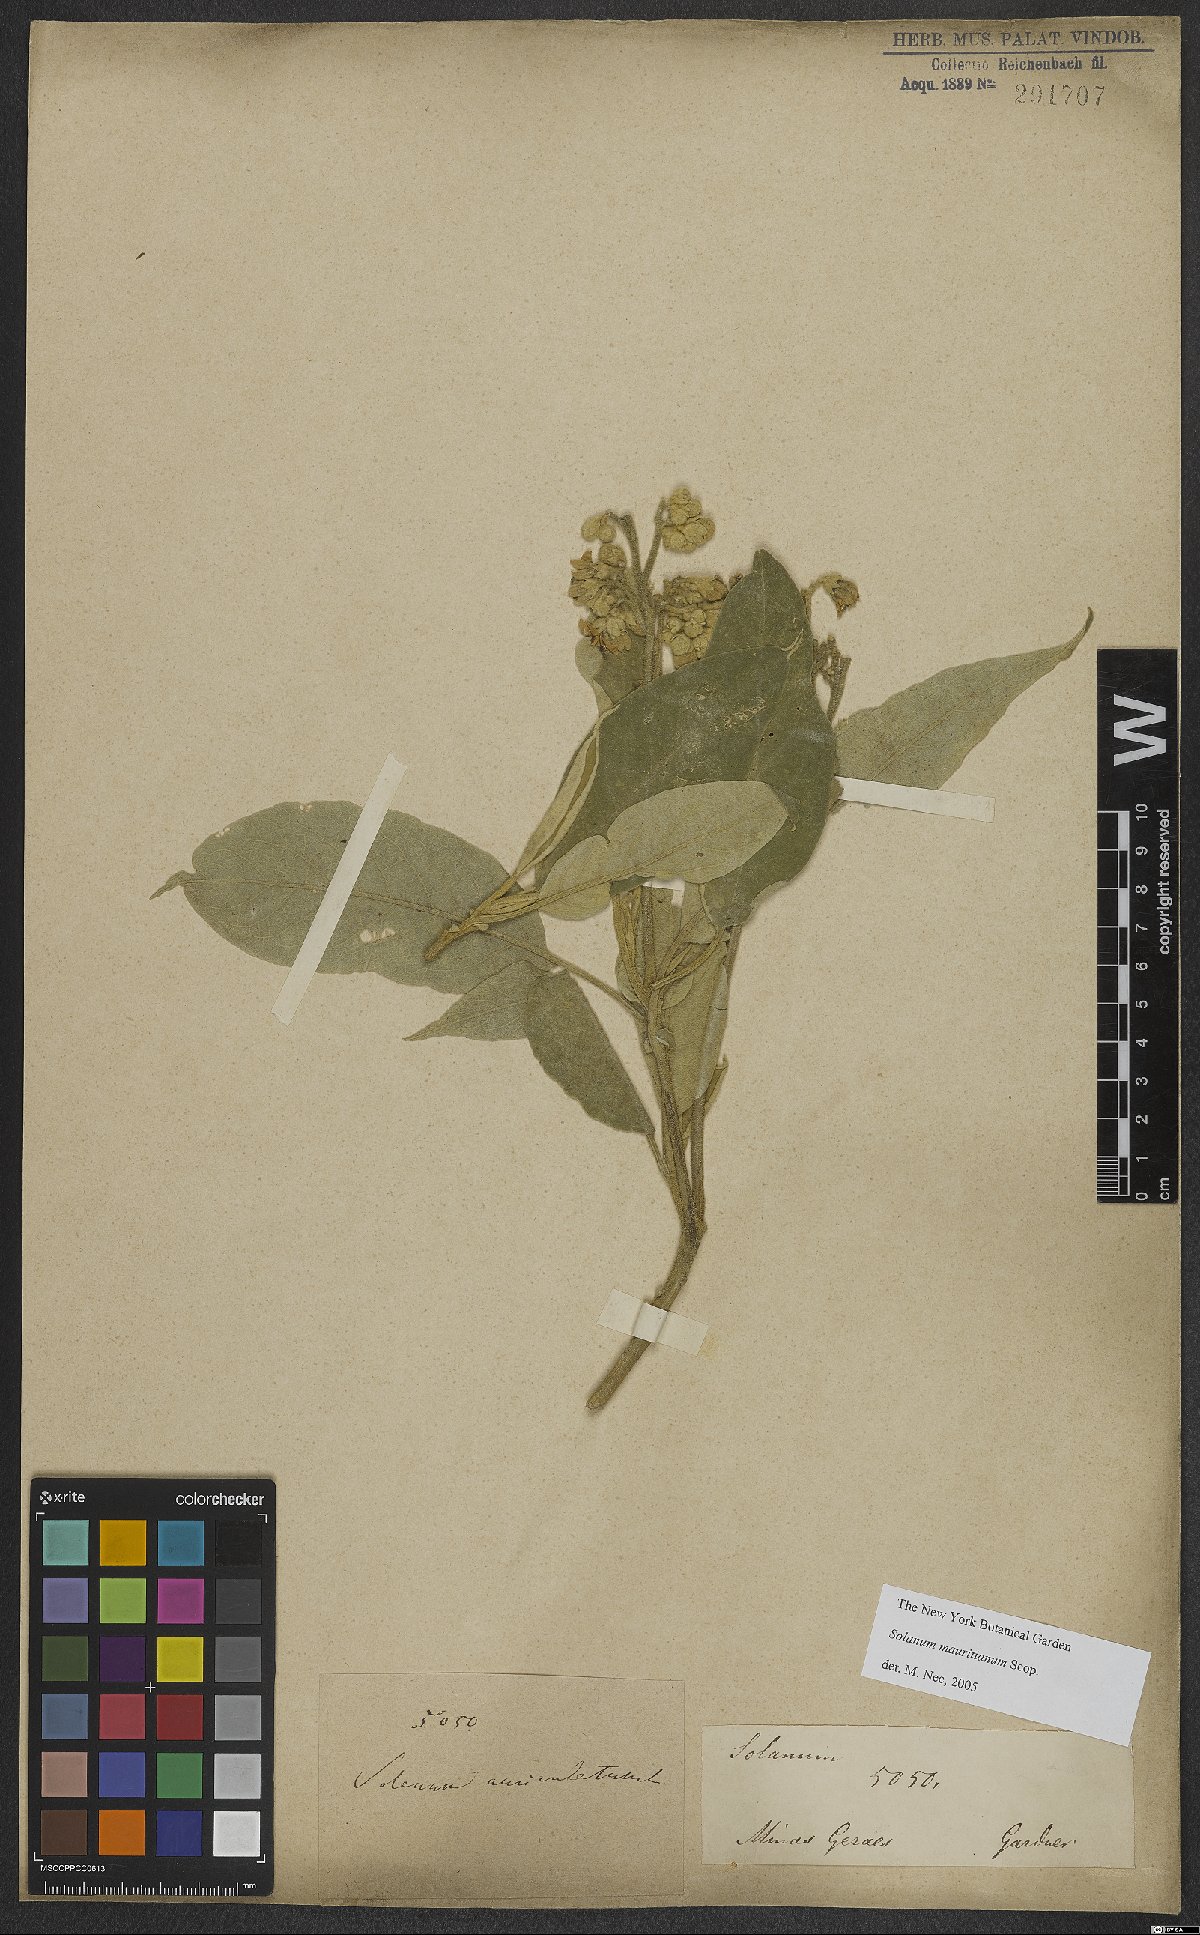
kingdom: Plantae
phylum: Tracheophyta
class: Magnoliopsida
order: Solanales
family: Solanaceae
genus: Solanum
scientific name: Solanum mauritianum
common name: Earleaf nightshade
